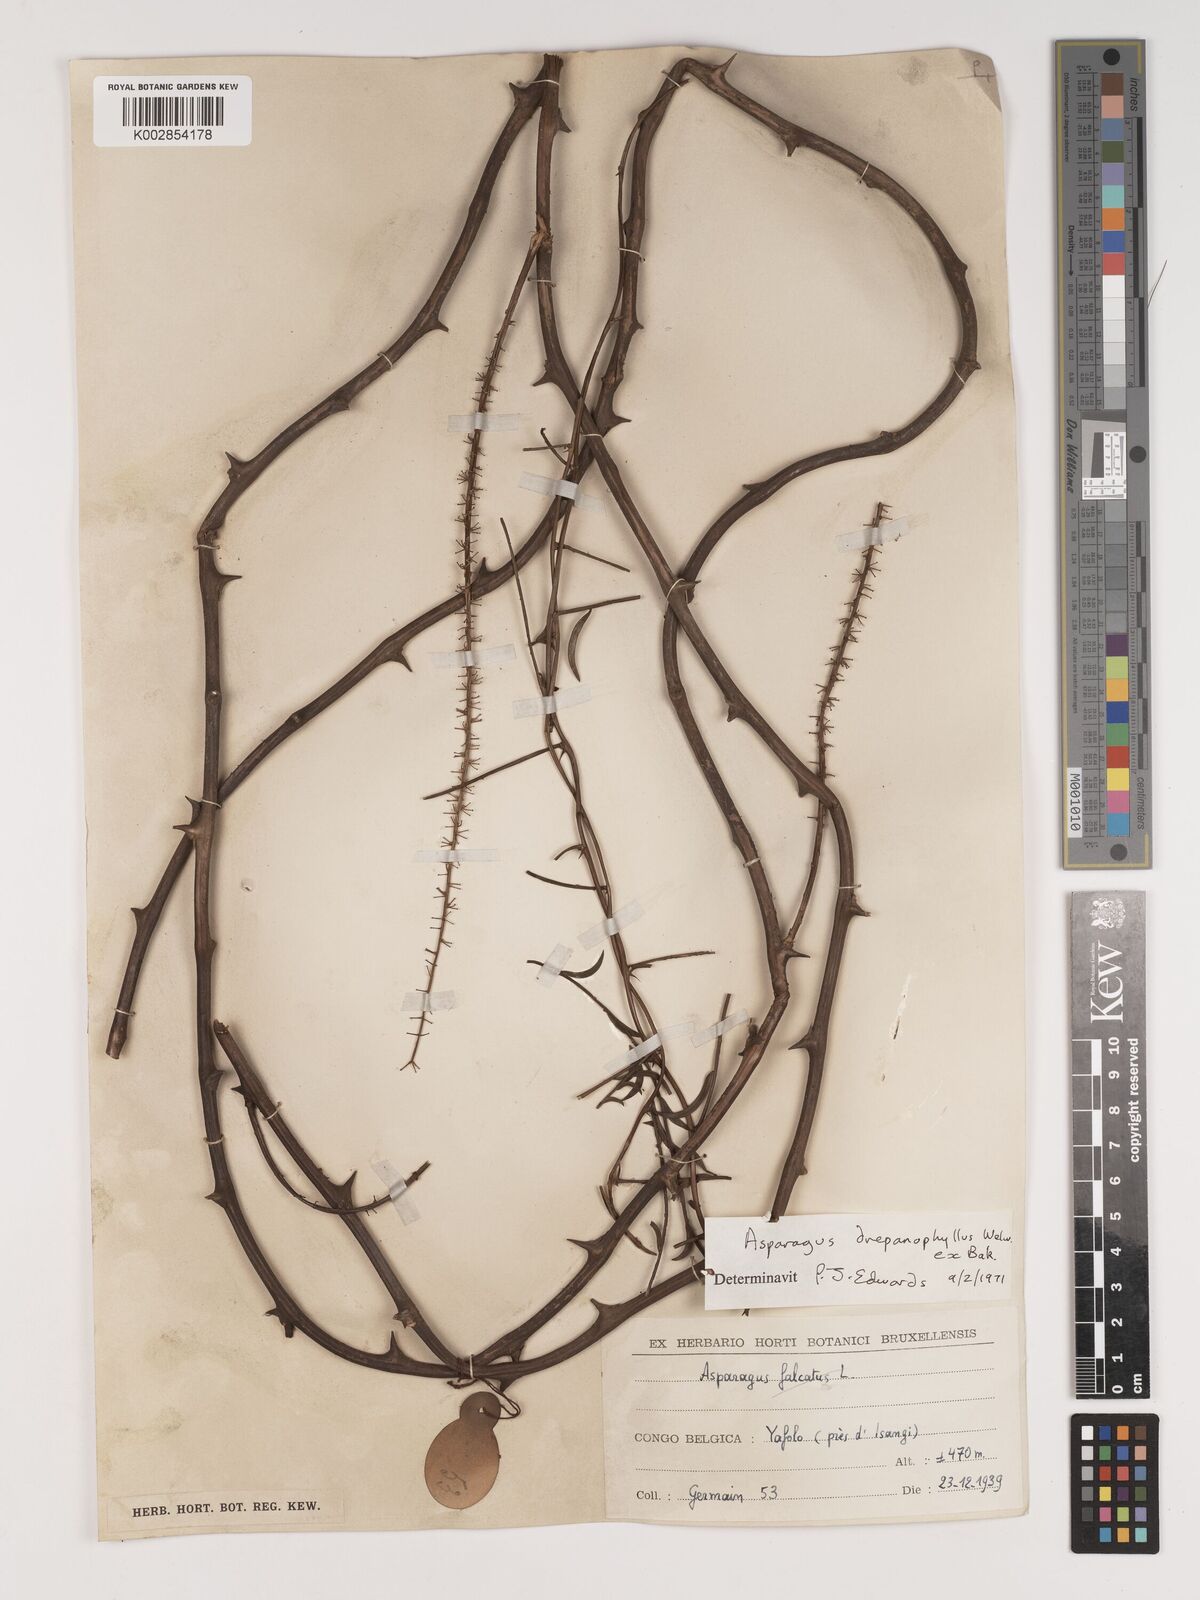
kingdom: Plantae
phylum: Tracheophyta
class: Liliopsida
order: Asparagales
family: Asparagaceae
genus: Asparagus
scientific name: Asparagus drepanophyllus
